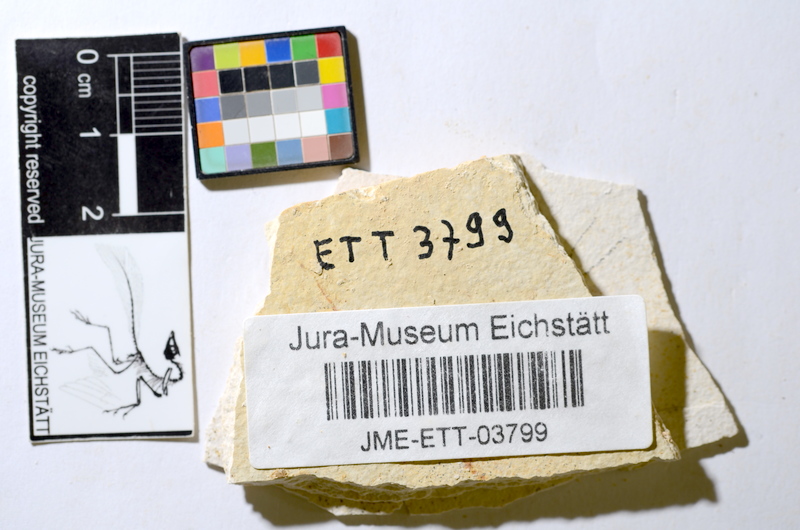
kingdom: Animalia
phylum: Chordata
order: Salmoniformes
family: Orthogonikleithridae
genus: Orthogonikleithrus
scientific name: Orthogonikleithrus hoelli
